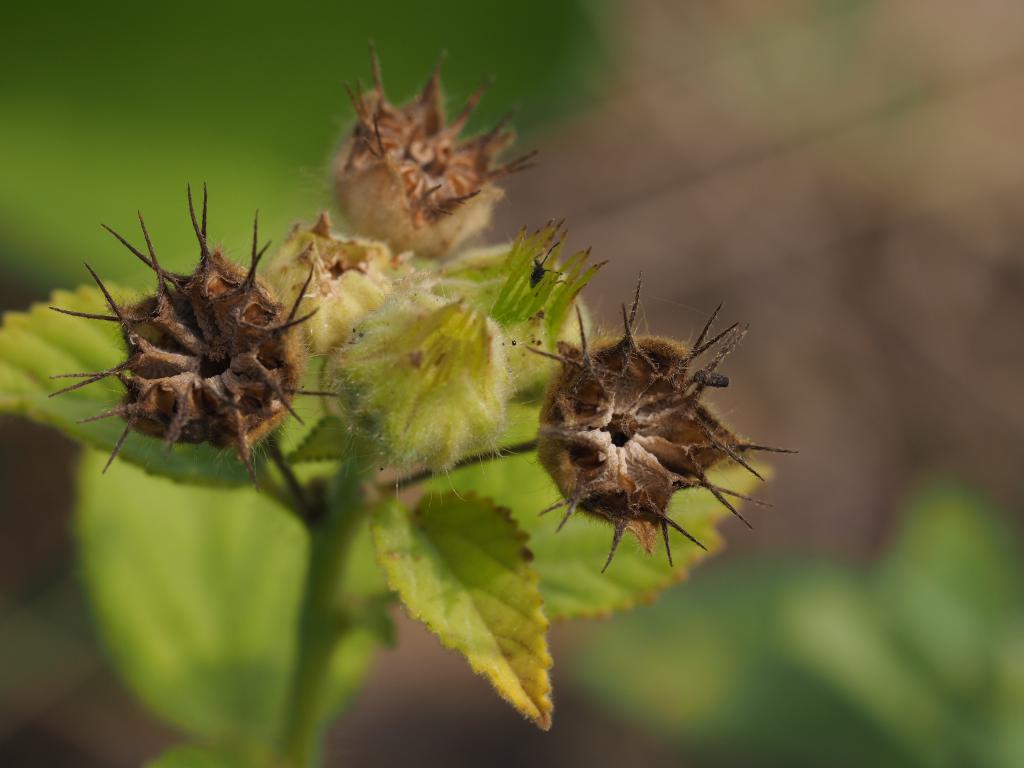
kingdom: Plantae
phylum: Tracheophyta
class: Magnoliopsida
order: Malvales
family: Malvaceae
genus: Sida
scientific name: Sida cordifolia
